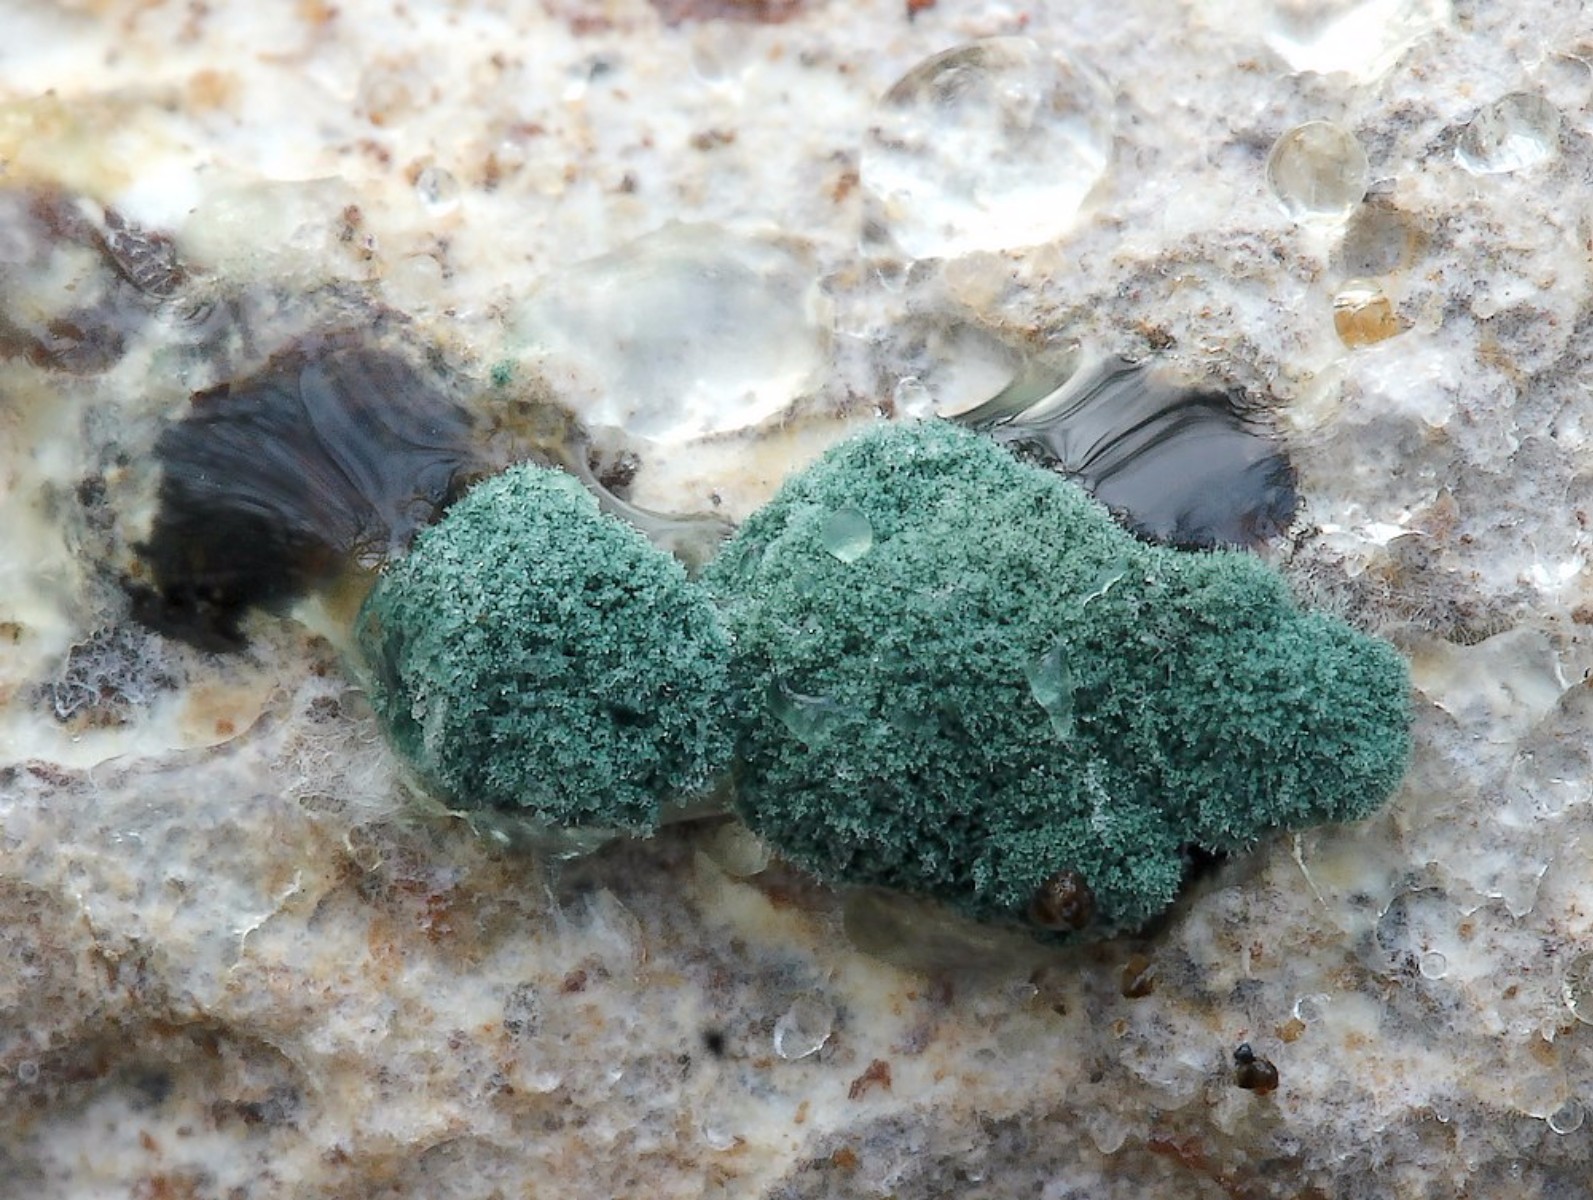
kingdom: Fungi
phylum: Ascomycota
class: Sordariomycetes
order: Hypocreales
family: Hypocreaceae
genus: Trichoderma
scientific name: Trichoderma
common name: kødkerne
